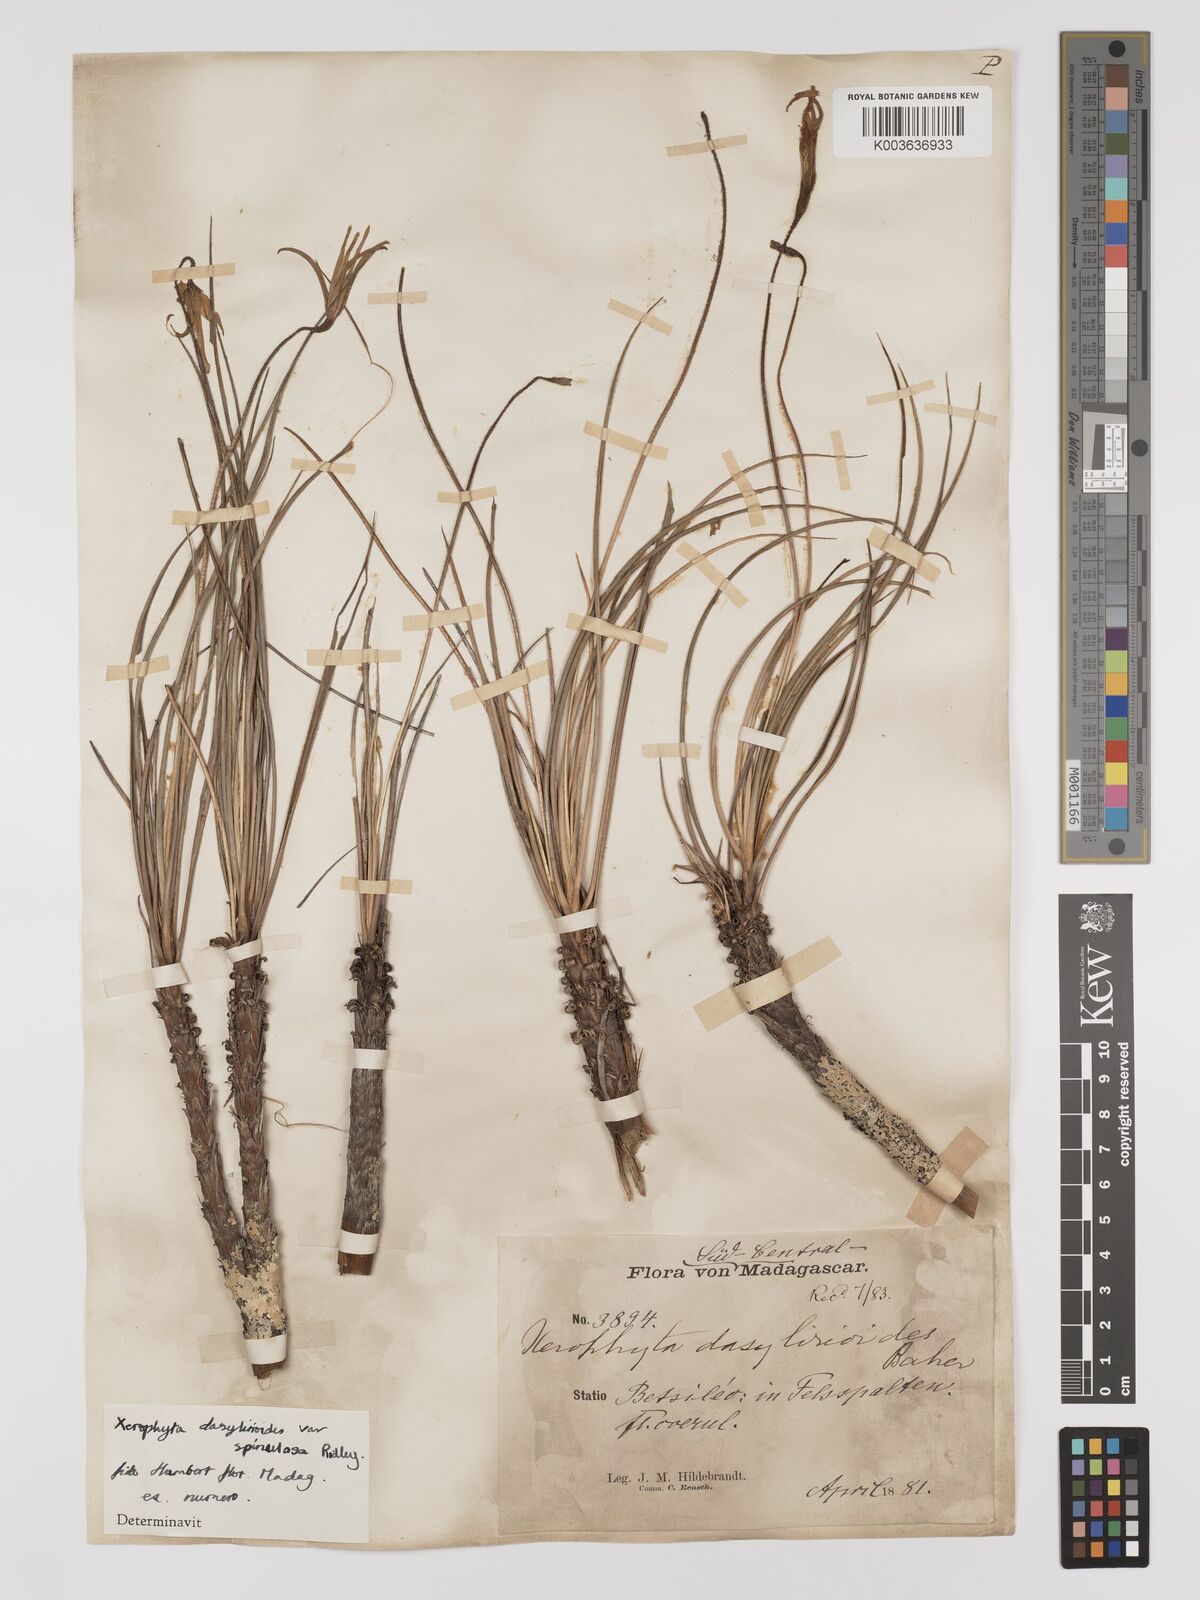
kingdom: Plantae
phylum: Tracheophyta
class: Liliopsida
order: Pandanales
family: Velloziaceae
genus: Xerophyta
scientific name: Xerophyta pectinata
